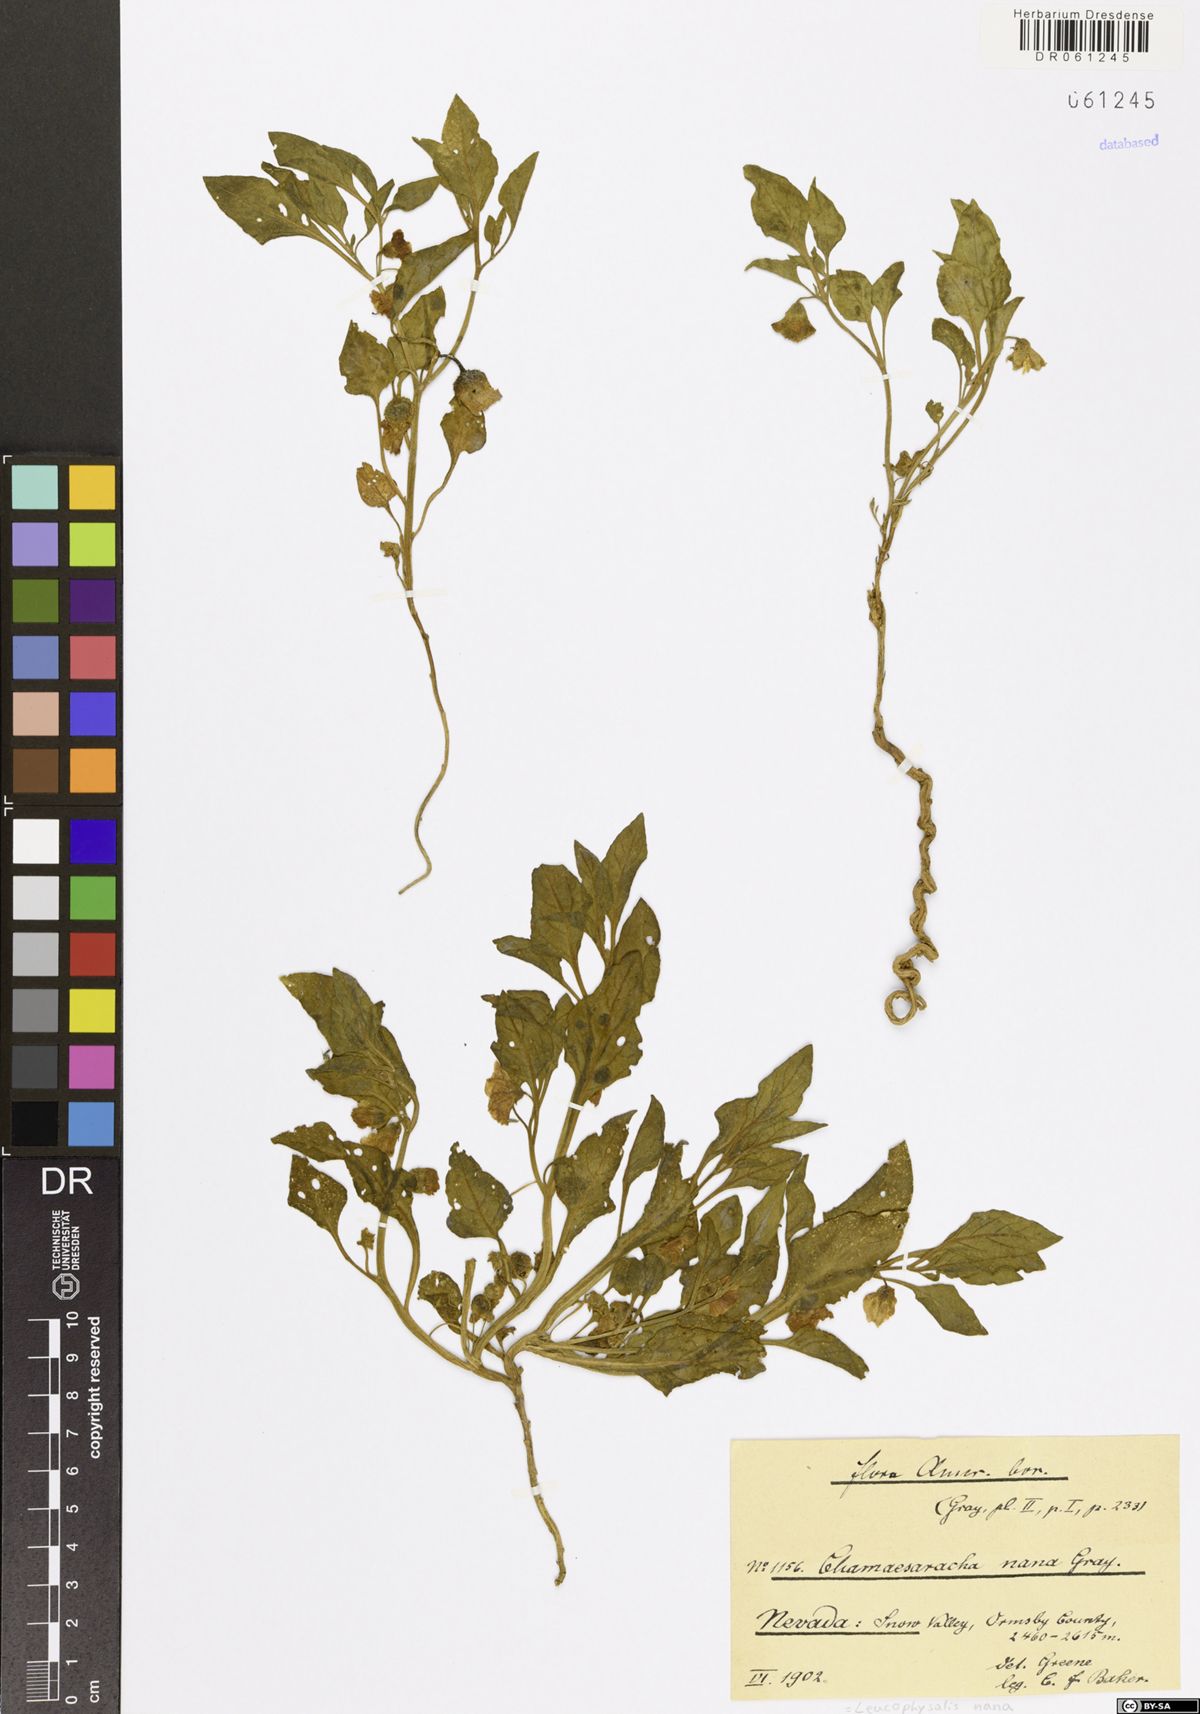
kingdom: Plantae
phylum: Tracheophyta
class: Magnoliopsida
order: Solanales
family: Solanaceae
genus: Leucophysalis
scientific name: Leucophysalis nana
